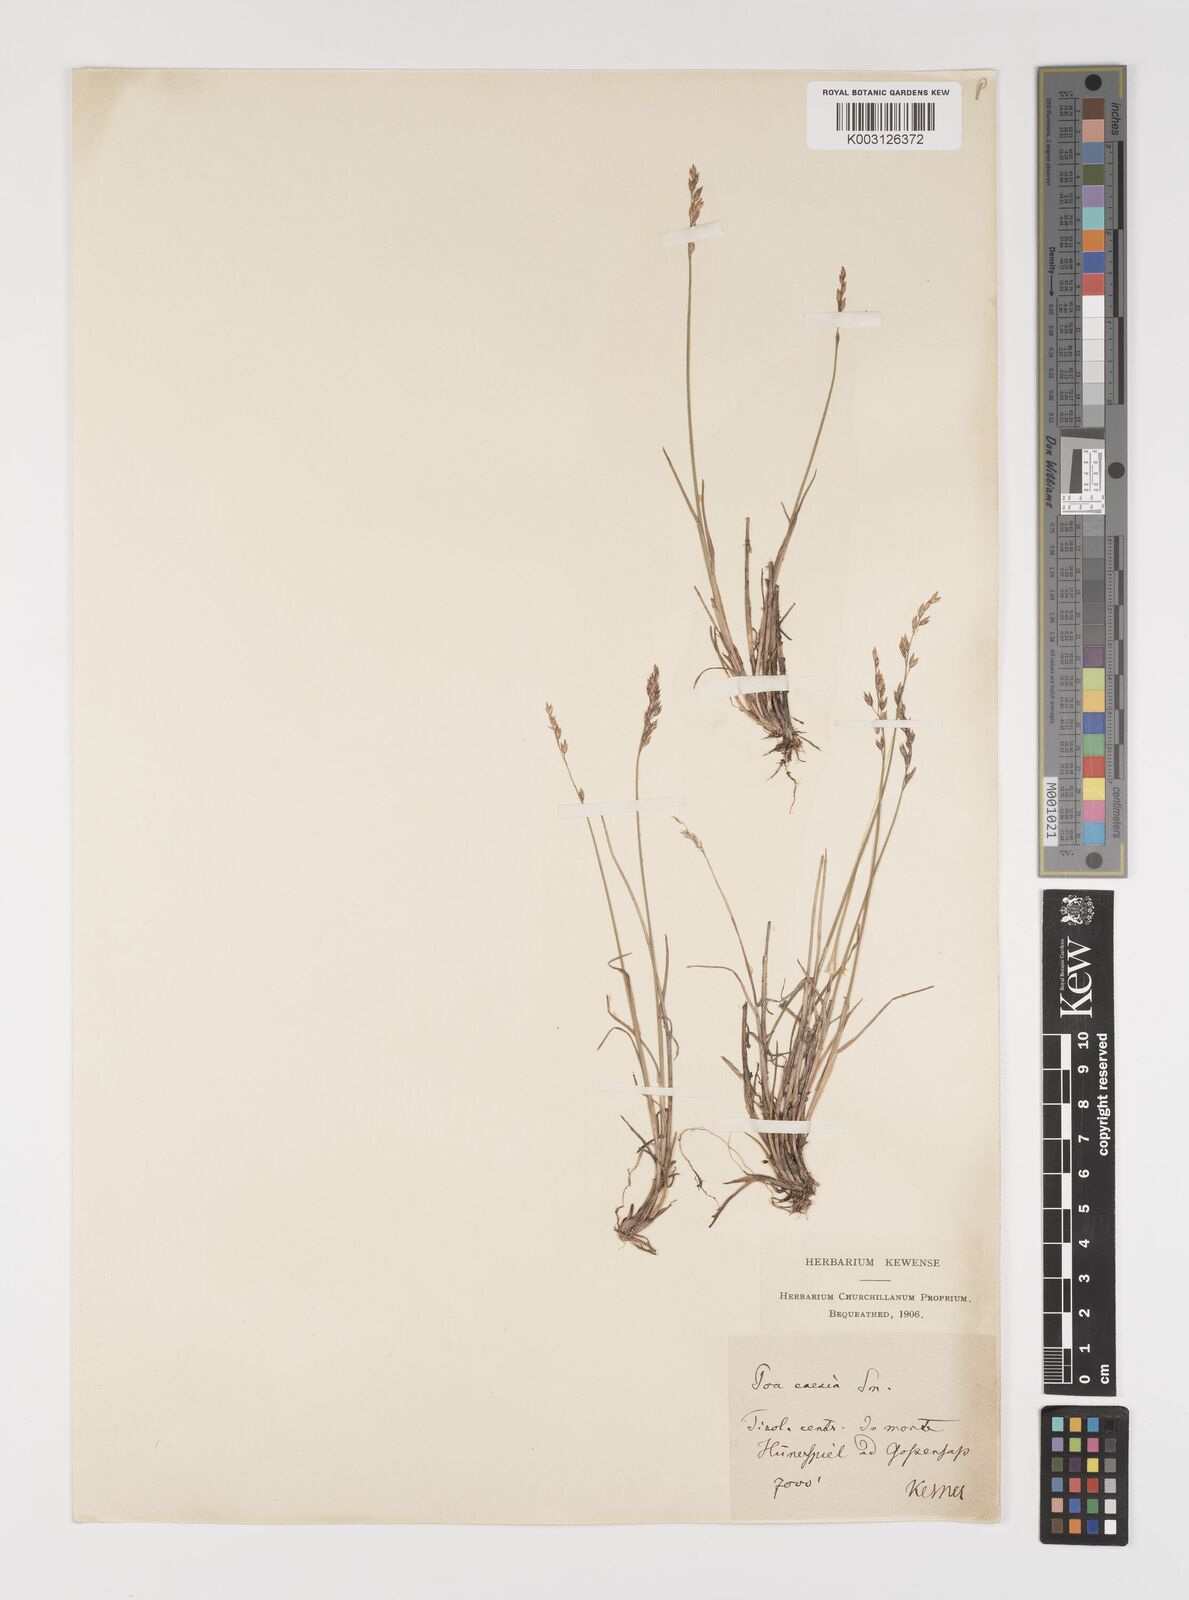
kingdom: Plantae
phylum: Tracheophyta
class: Liliopsida
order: Poales
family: Poaceae
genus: Poa
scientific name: Poa glauca
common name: Glaucous bluegrass
